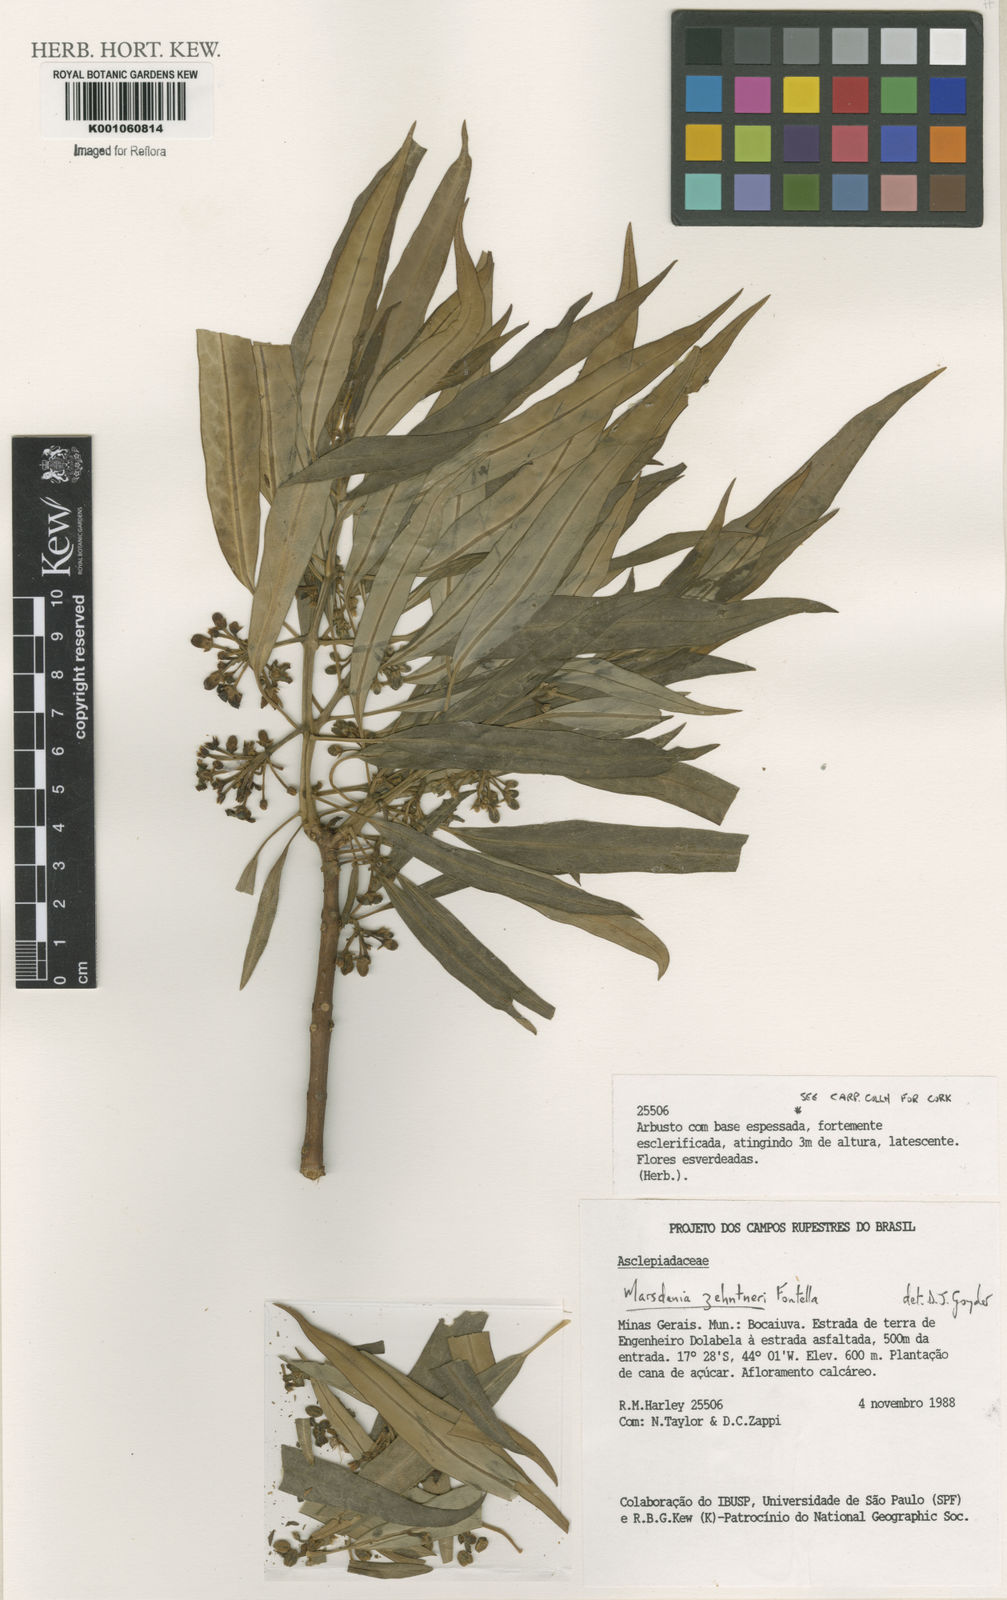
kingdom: Plantae
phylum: Tracheophyta
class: Magnoliopsida
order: Gentianales
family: Apocynaceae
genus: Ruehssia
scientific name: Ruehssia zehntneri
